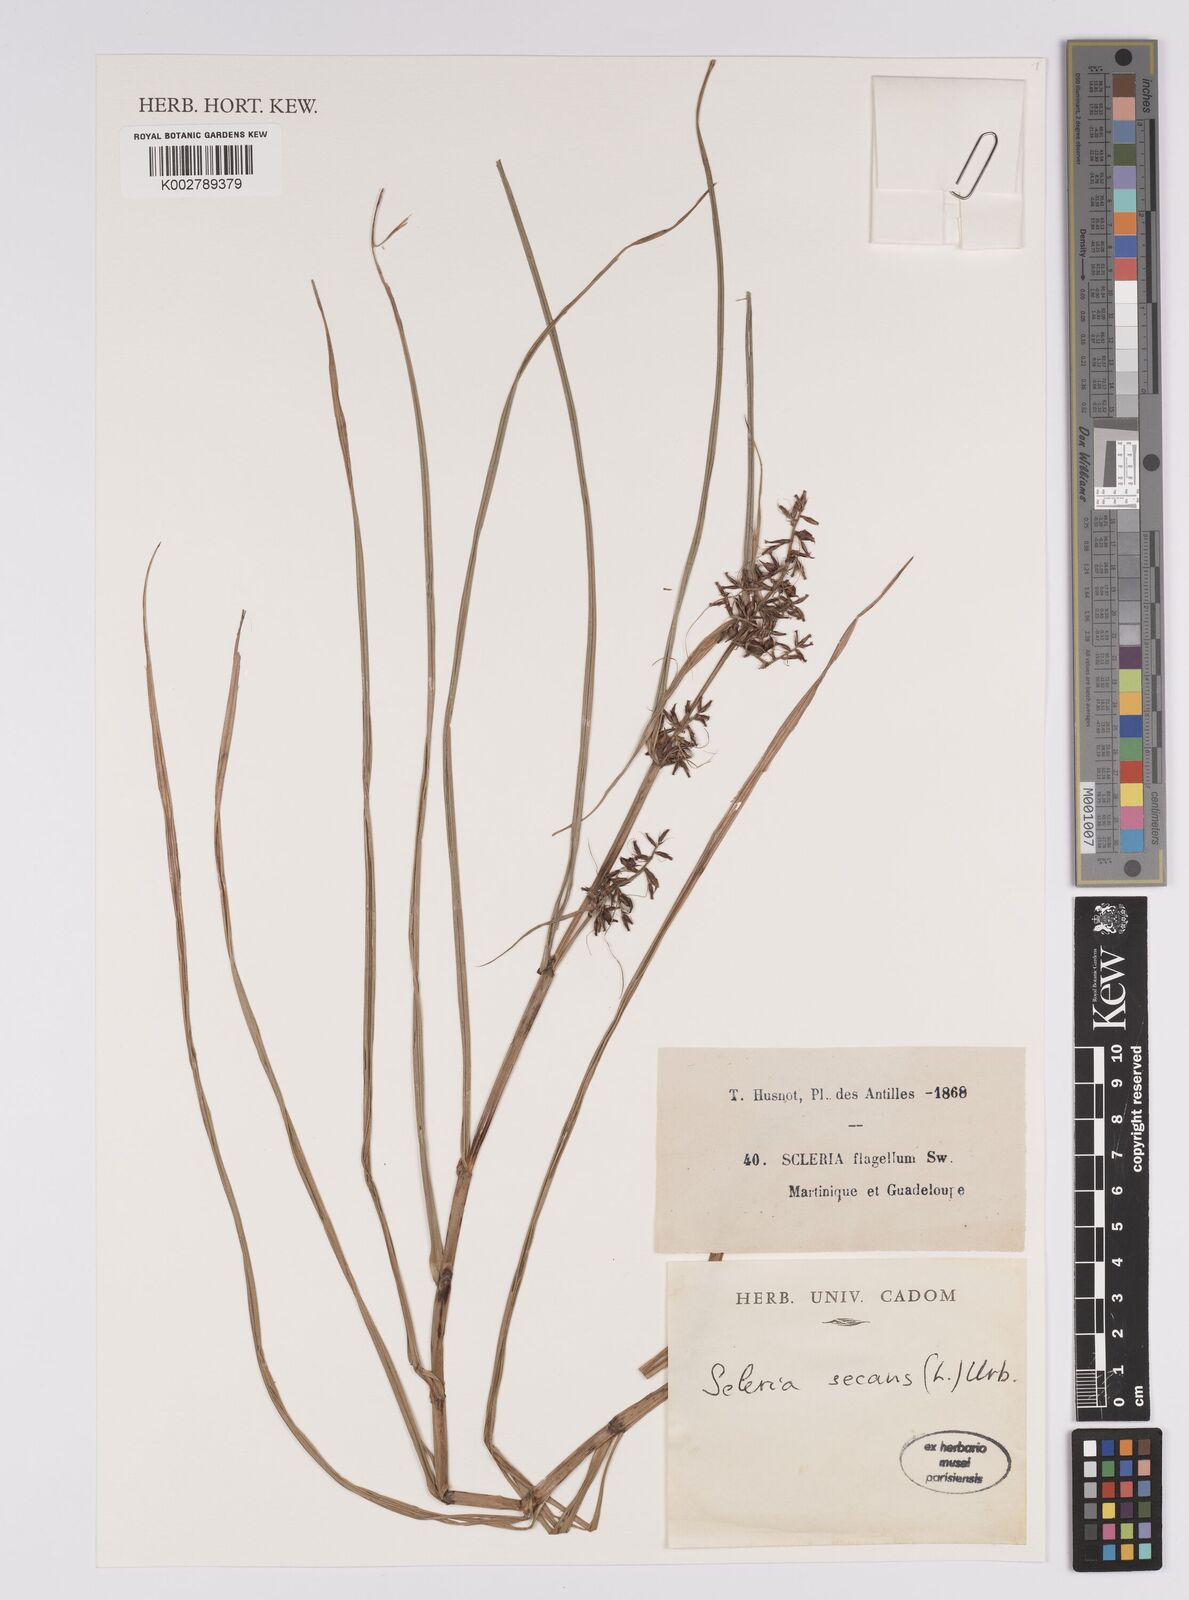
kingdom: Plantae
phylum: Tracheophyta
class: Liliopsida
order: Poales
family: Cyperaceae
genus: Scleria
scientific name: Scleria gaertneri
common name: Cortadera blanca
